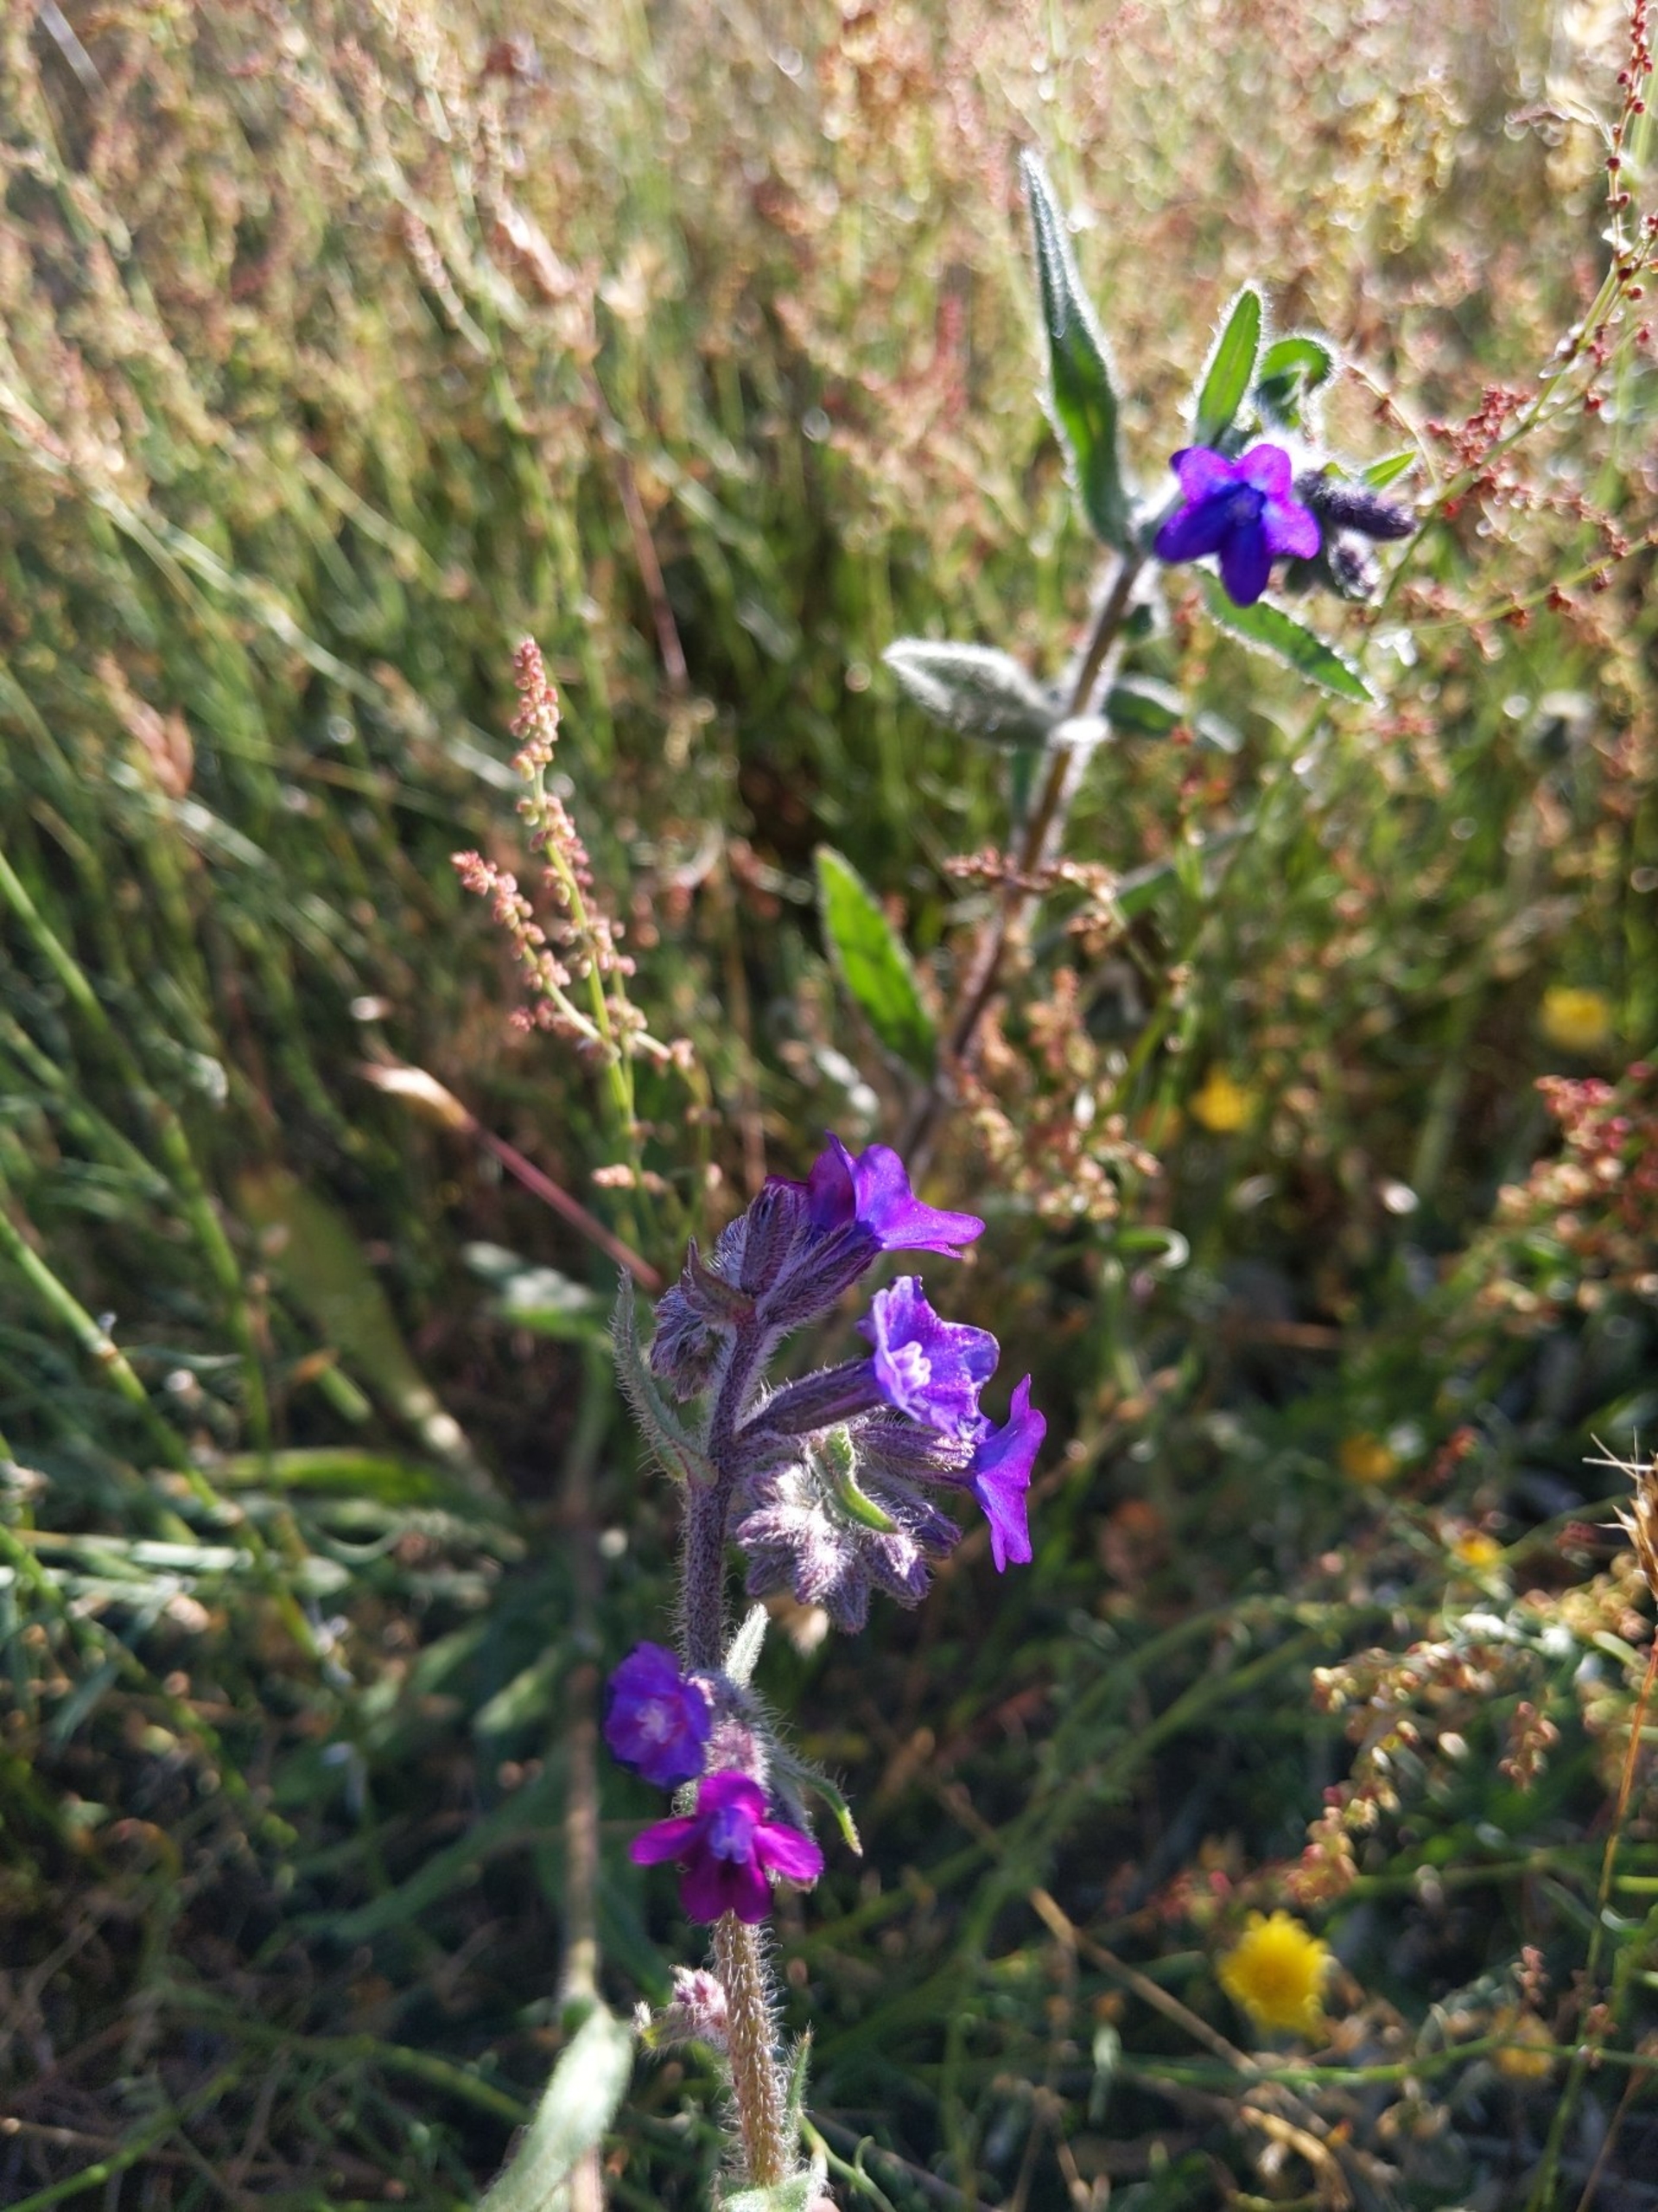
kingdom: Plantae
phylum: Tracheophyta
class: Magnoliopsida
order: Boraginales
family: Boraginaceae
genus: Anchusa
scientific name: Anchusa officinalis
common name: Læge-oksetunge
